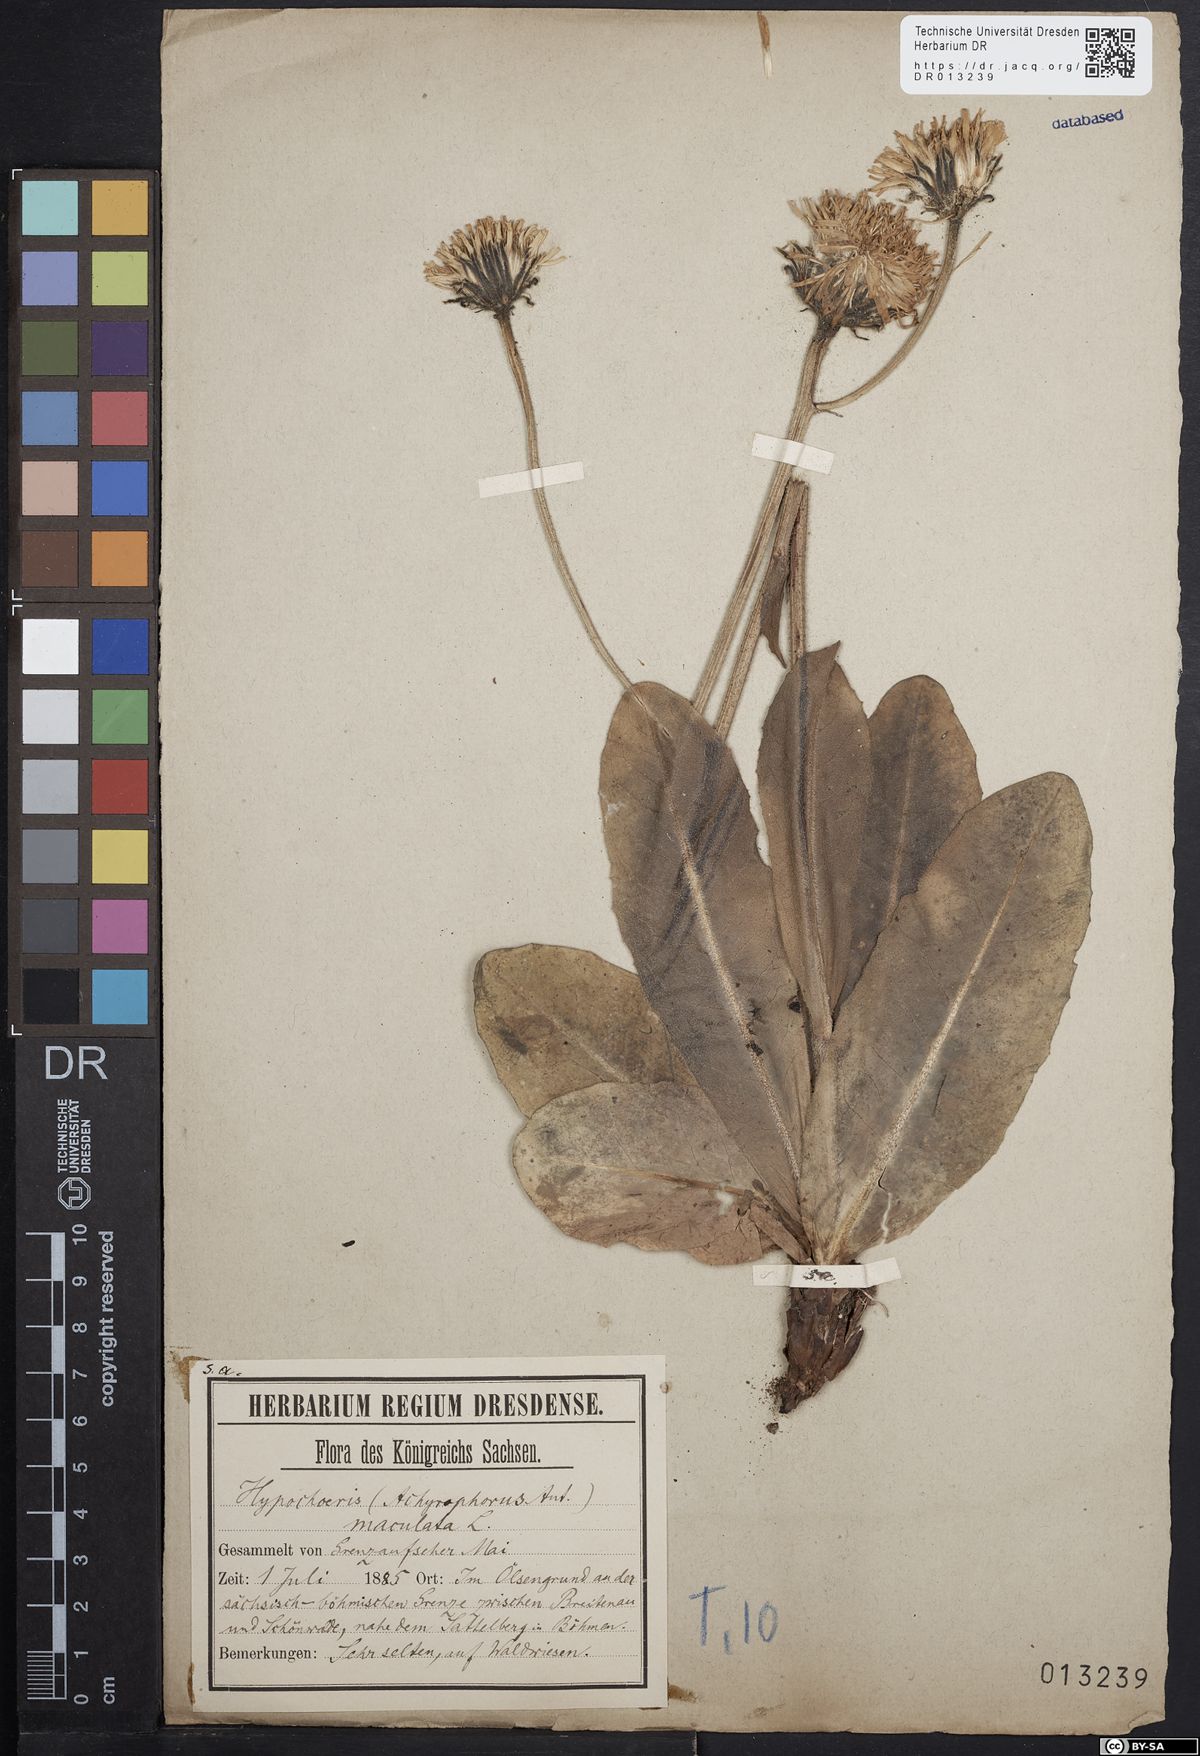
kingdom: Plantae
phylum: Tracheophyta
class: Magnoliopsida
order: Asterales
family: Asteraceae
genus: Trommsdorffia
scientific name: Trommsdorffia maculata
